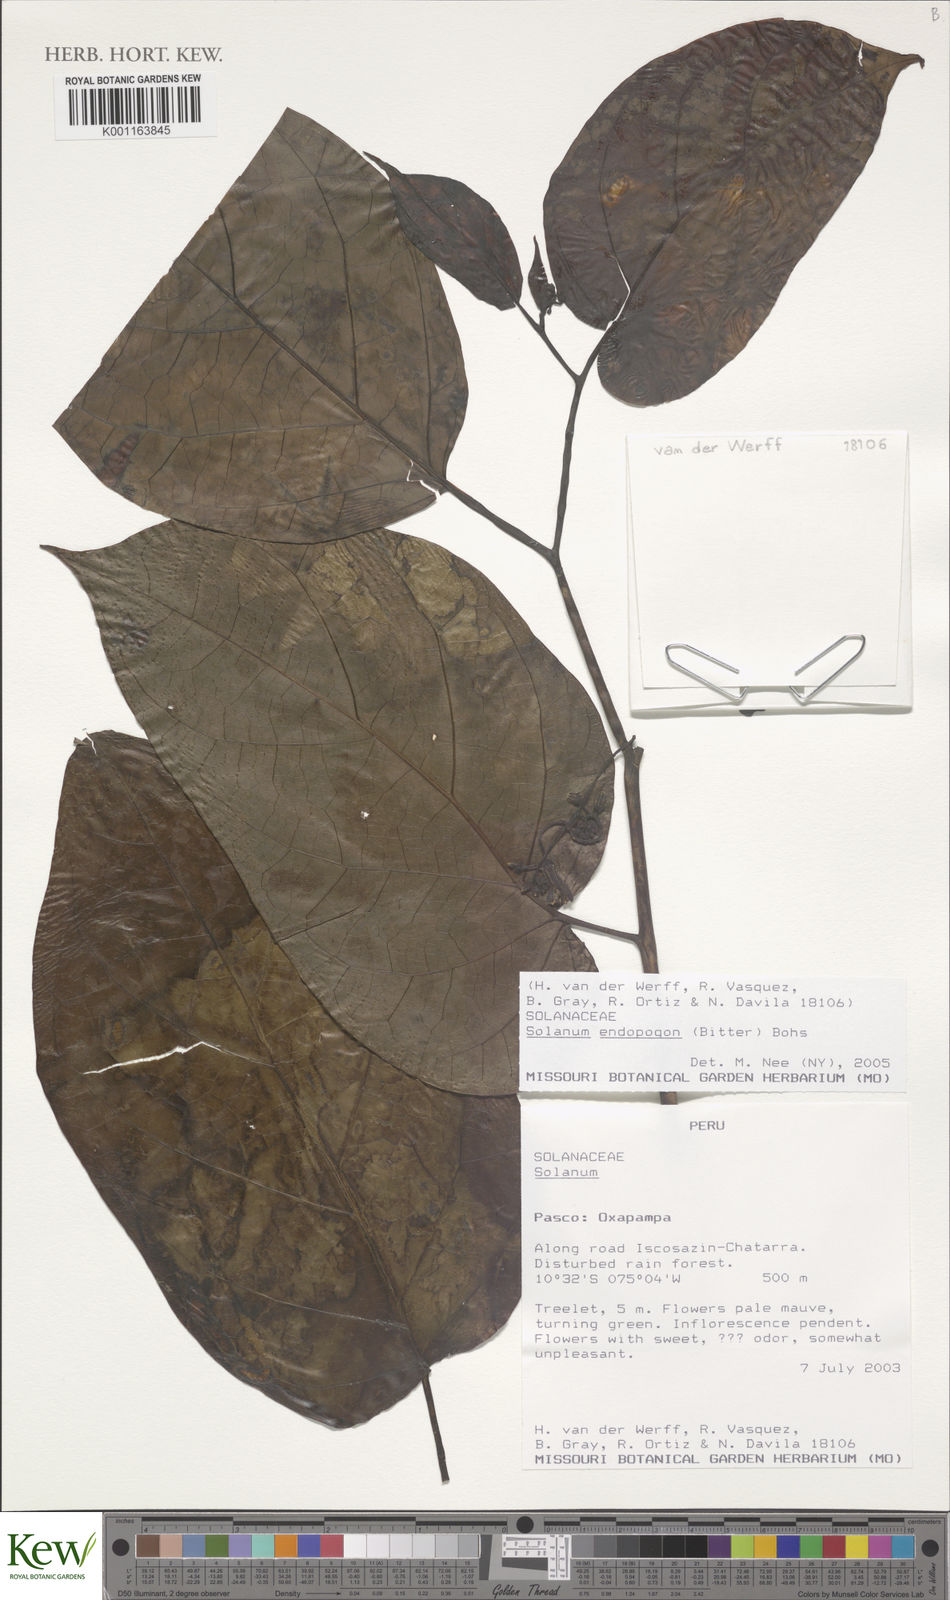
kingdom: Plantae
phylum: Tracheophyta
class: Magnoliopsida
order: Solanales
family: Solanaceae
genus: Solanum
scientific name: Solanum endopogon
